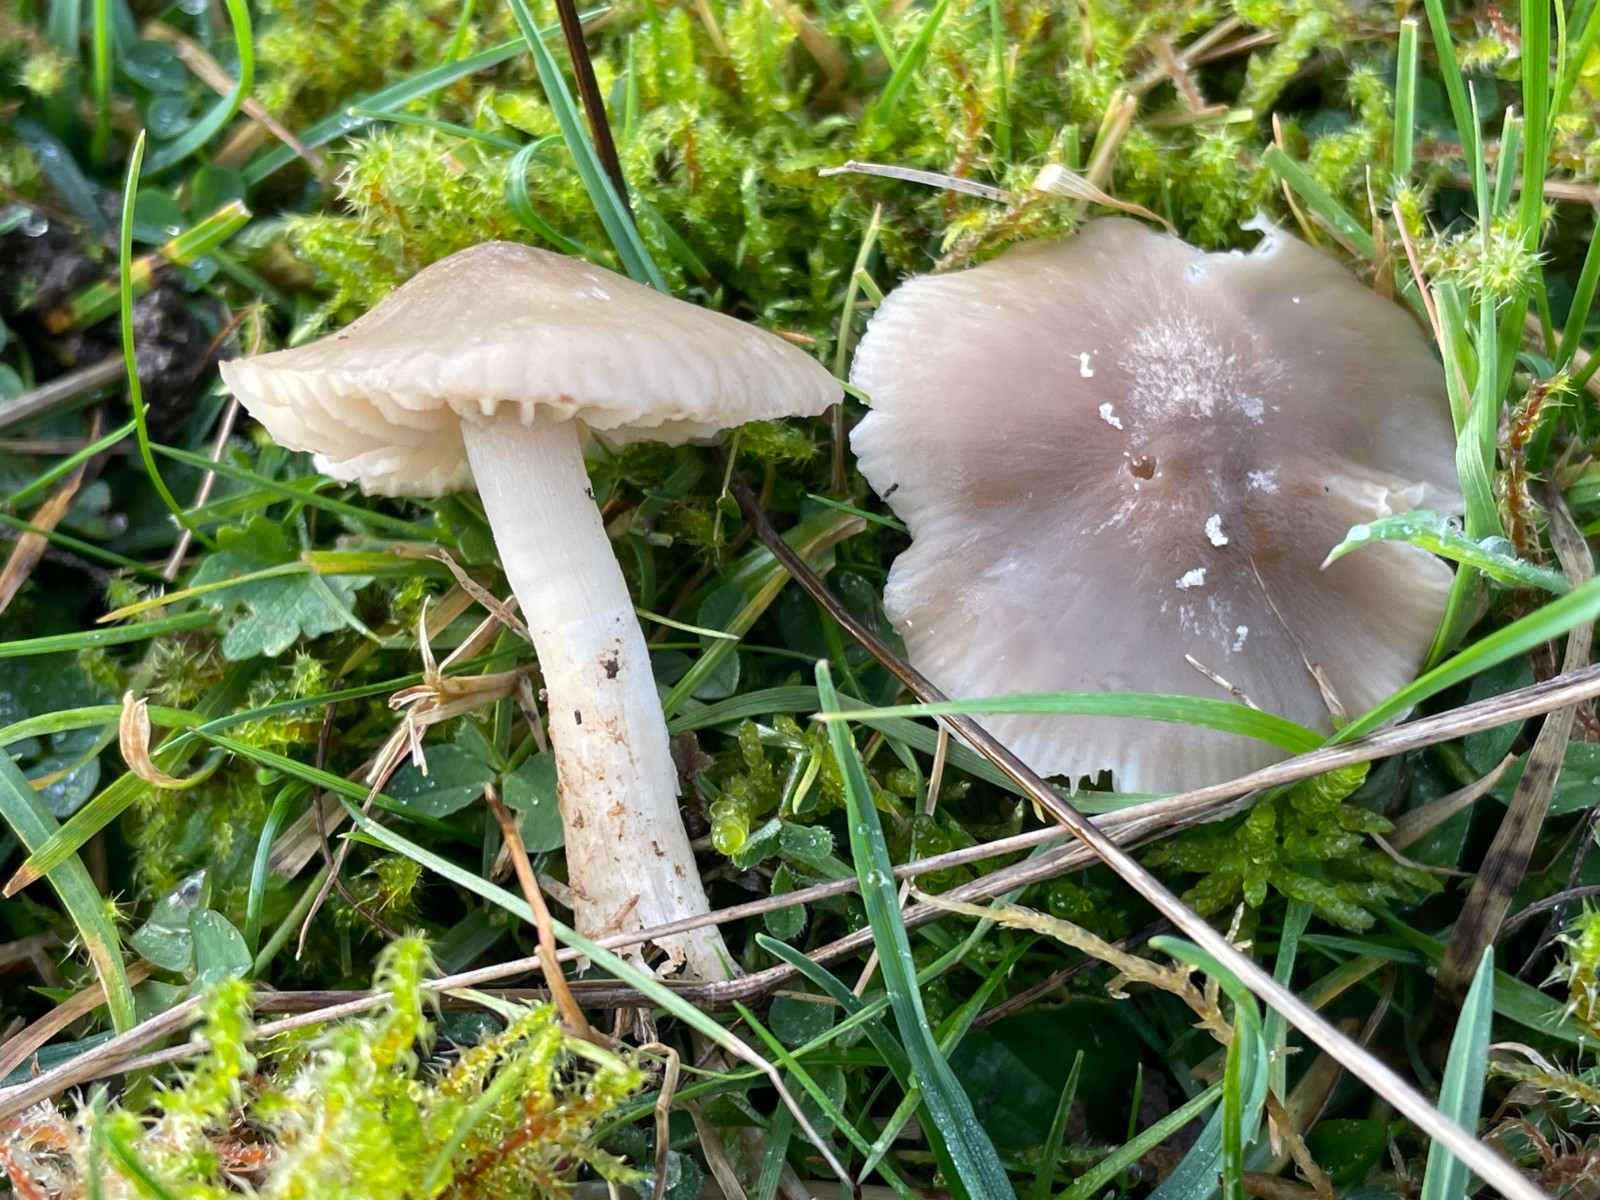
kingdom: Fungi
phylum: Basidiomycota
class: Agaricomycetes
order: Agaricales
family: Hygrophoraceae
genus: Cuphophyllus
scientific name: Cuphophyllus fornicatus
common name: gråbrun vokshat
